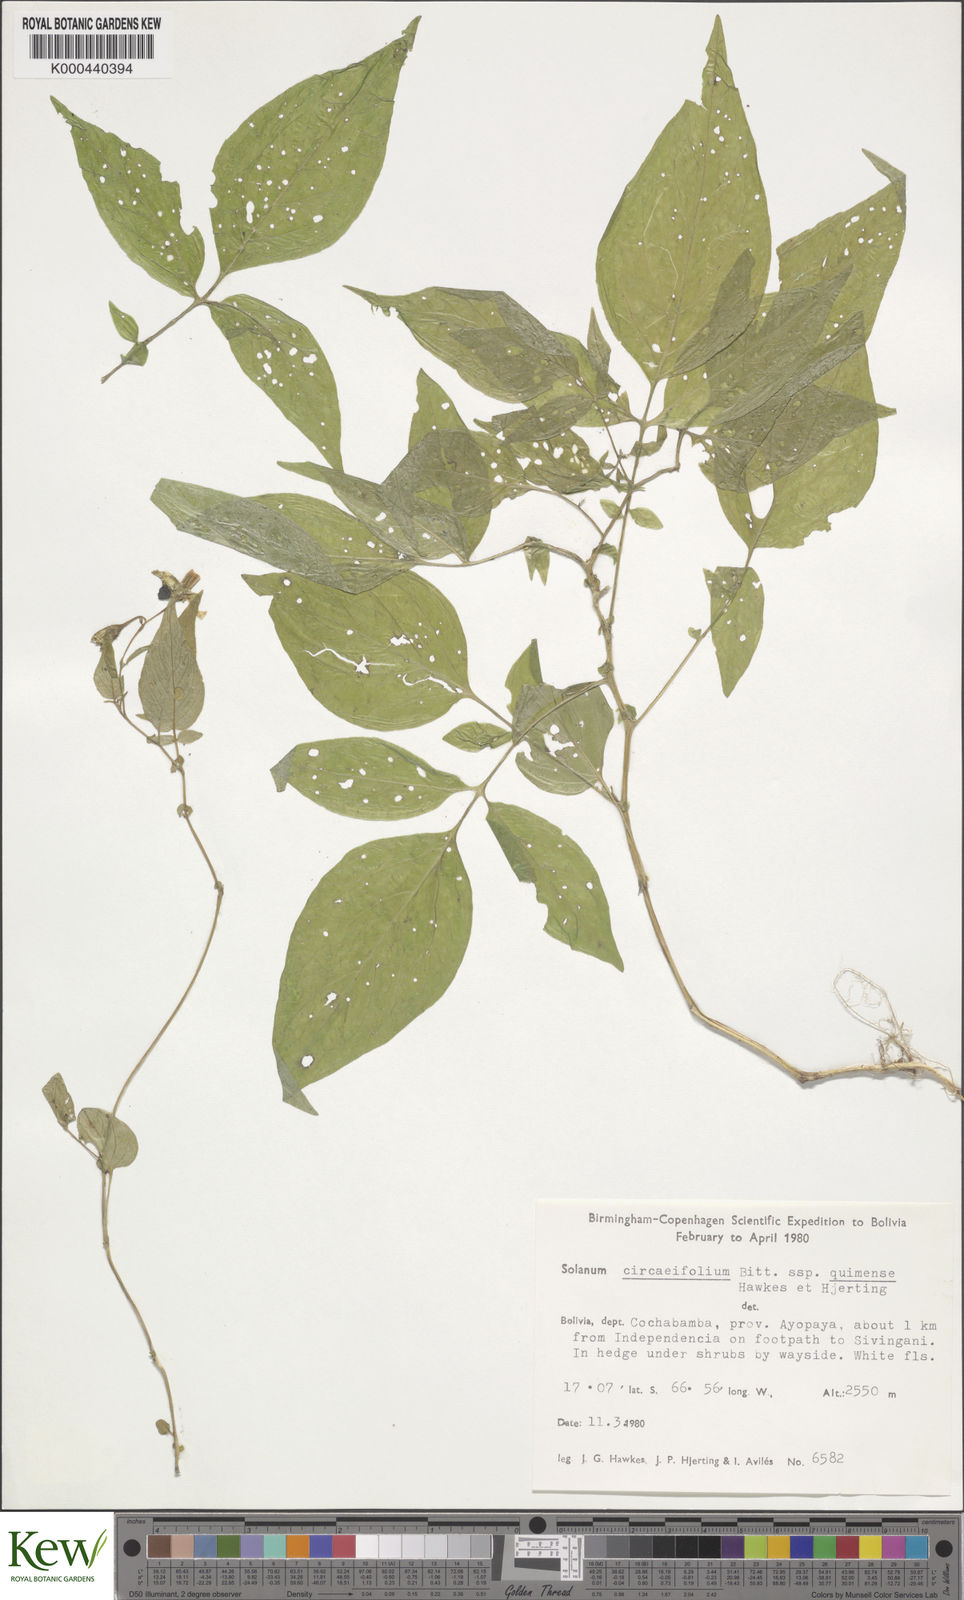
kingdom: Plantae
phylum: Tracheophyta
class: Magnoliopsida
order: Solanales
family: Solanaceae
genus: Solanum
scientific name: Solanum stipuloideum
